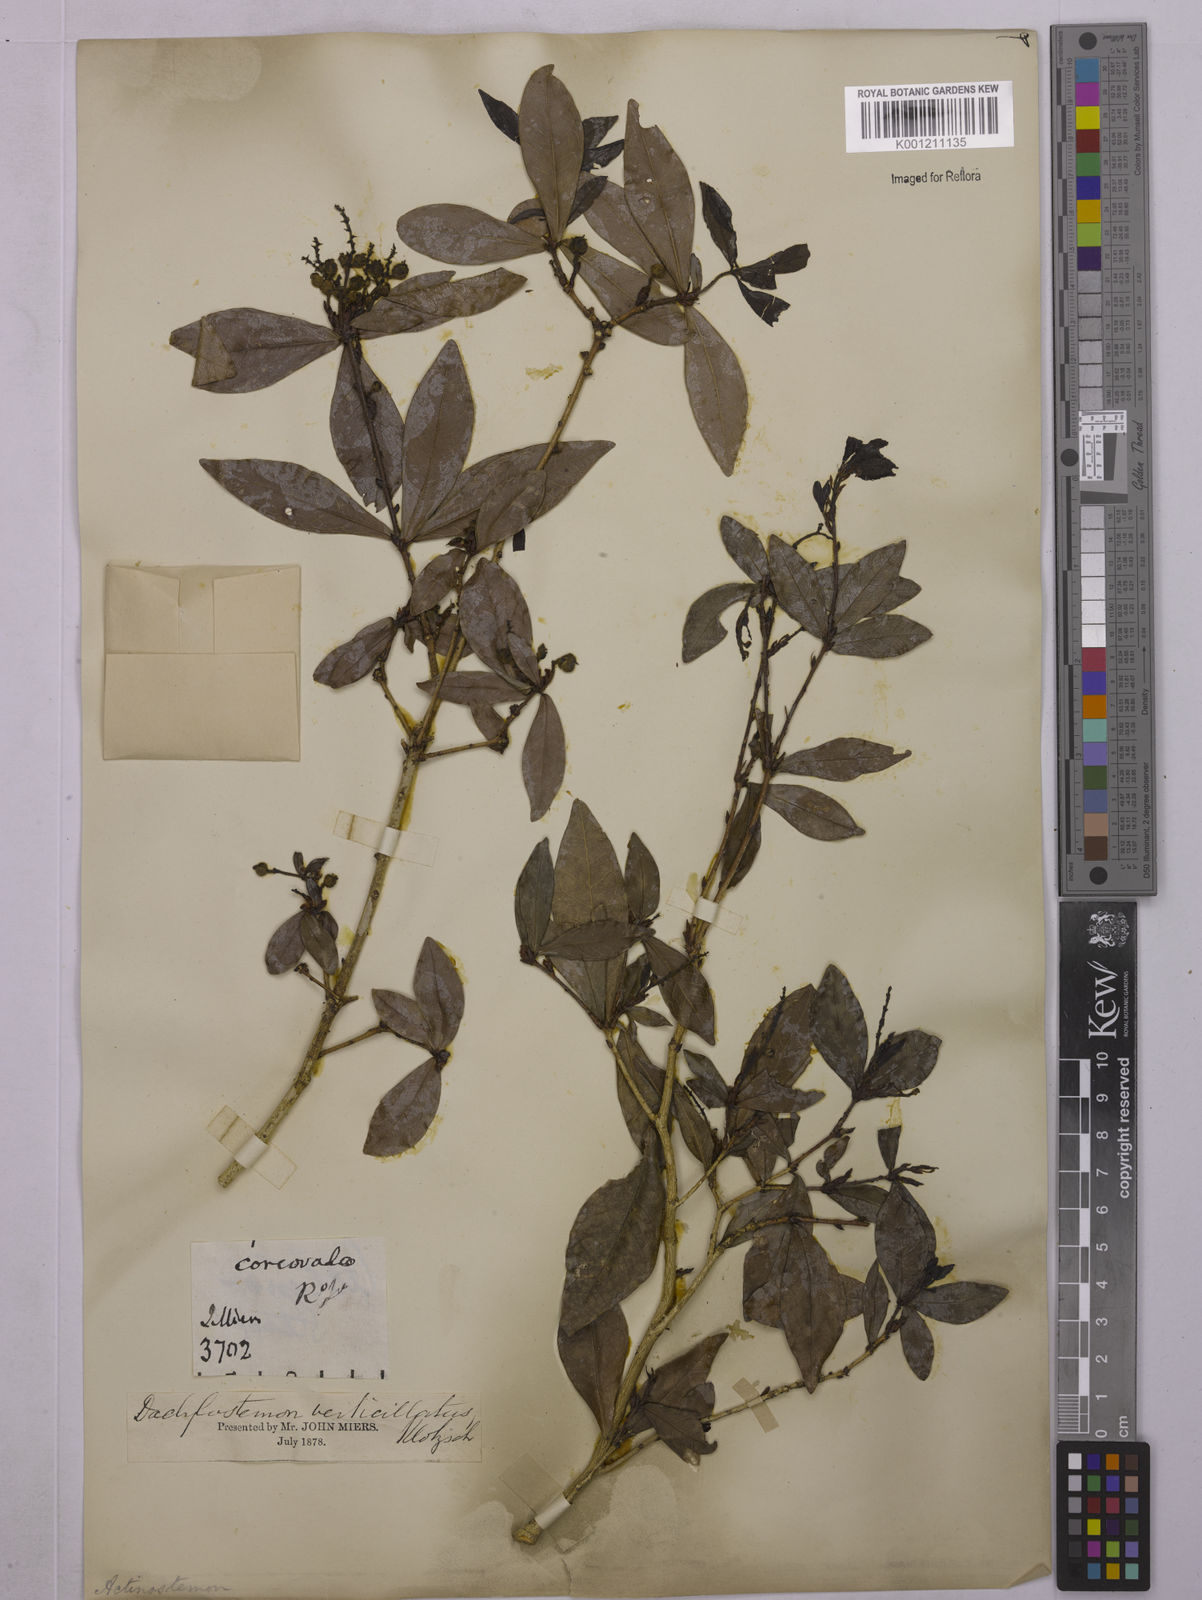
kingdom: Plantae
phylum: Tracheophyta
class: Magnoliopsida
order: Malpighiales
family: Euphorbiaceae
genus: Actinostemon
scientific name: Actinostemon verticillatus
